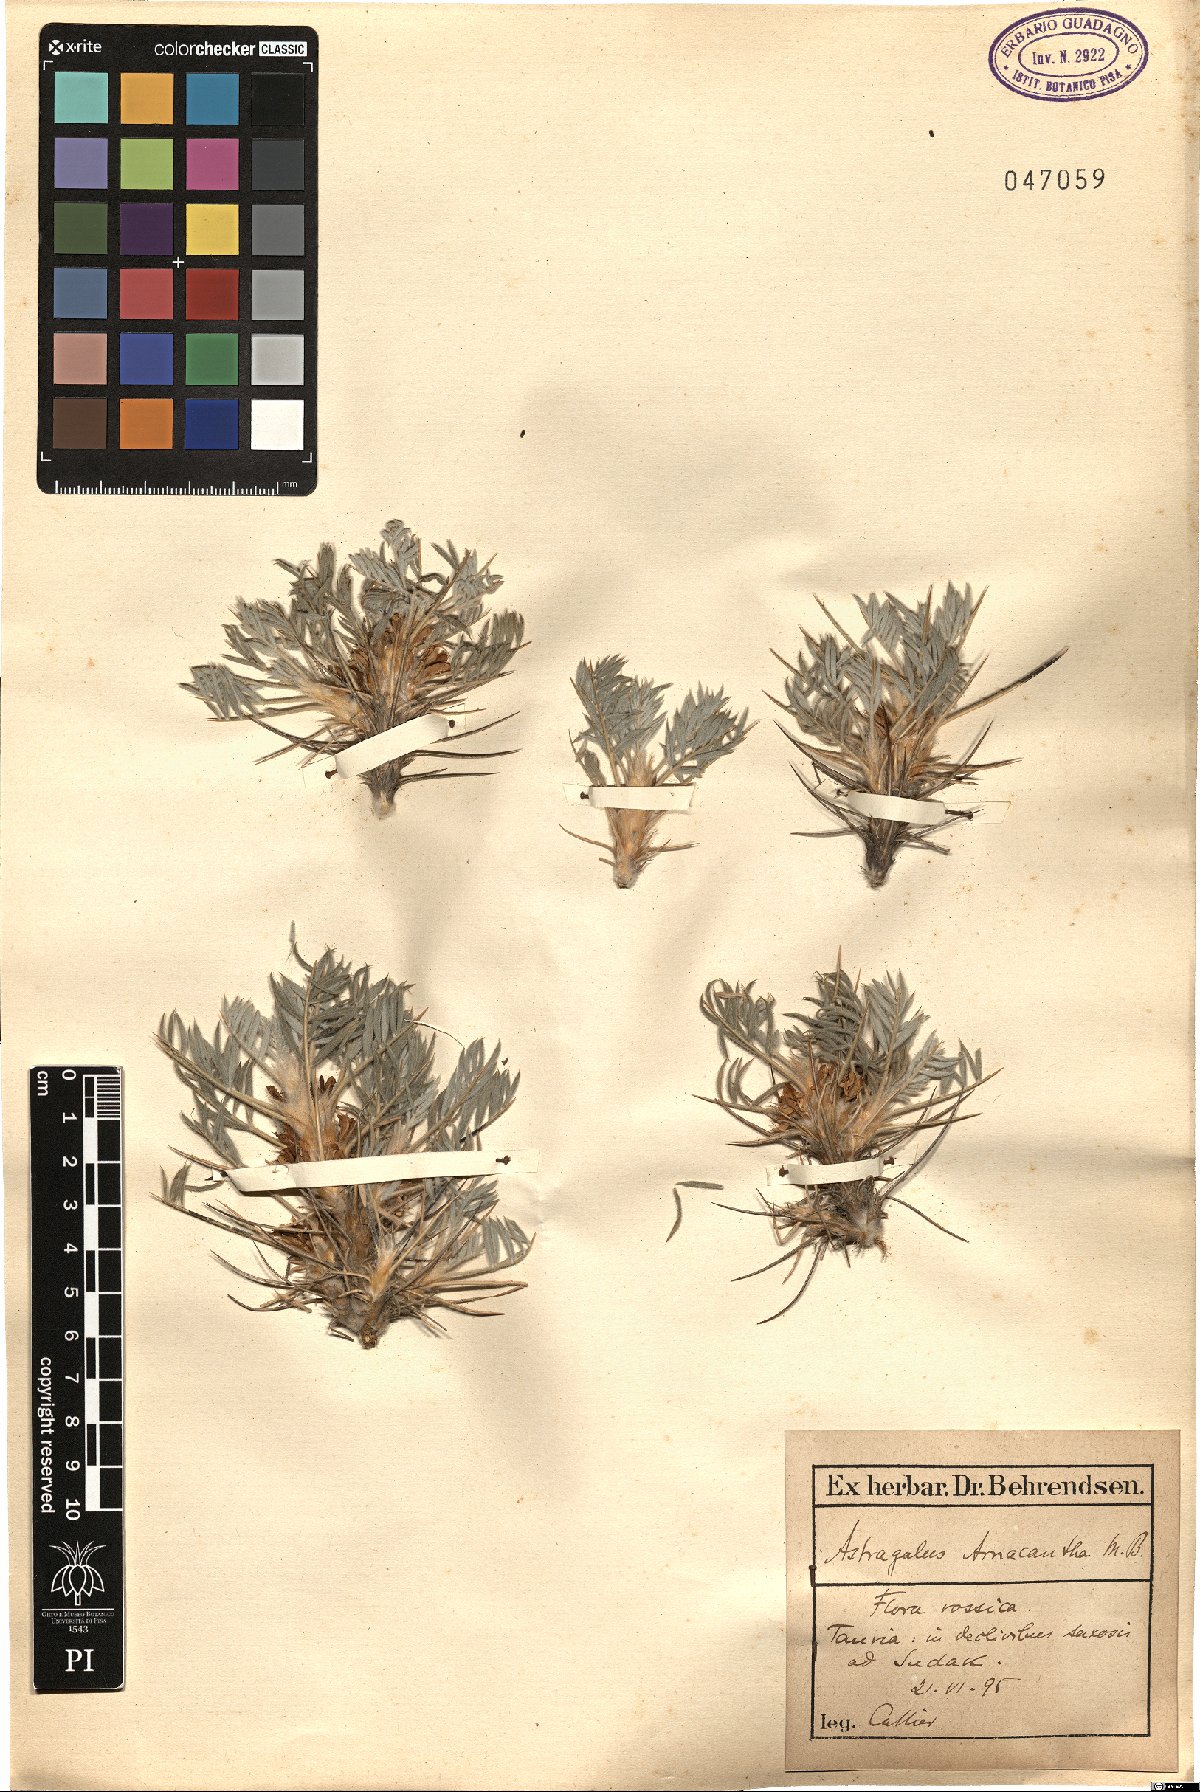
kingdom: Plantae
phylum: Tracheophyta
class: Magnoliopsida
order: Fabales
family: Fabaceae
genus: Astragalus
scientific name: Astragalus arnacantha
